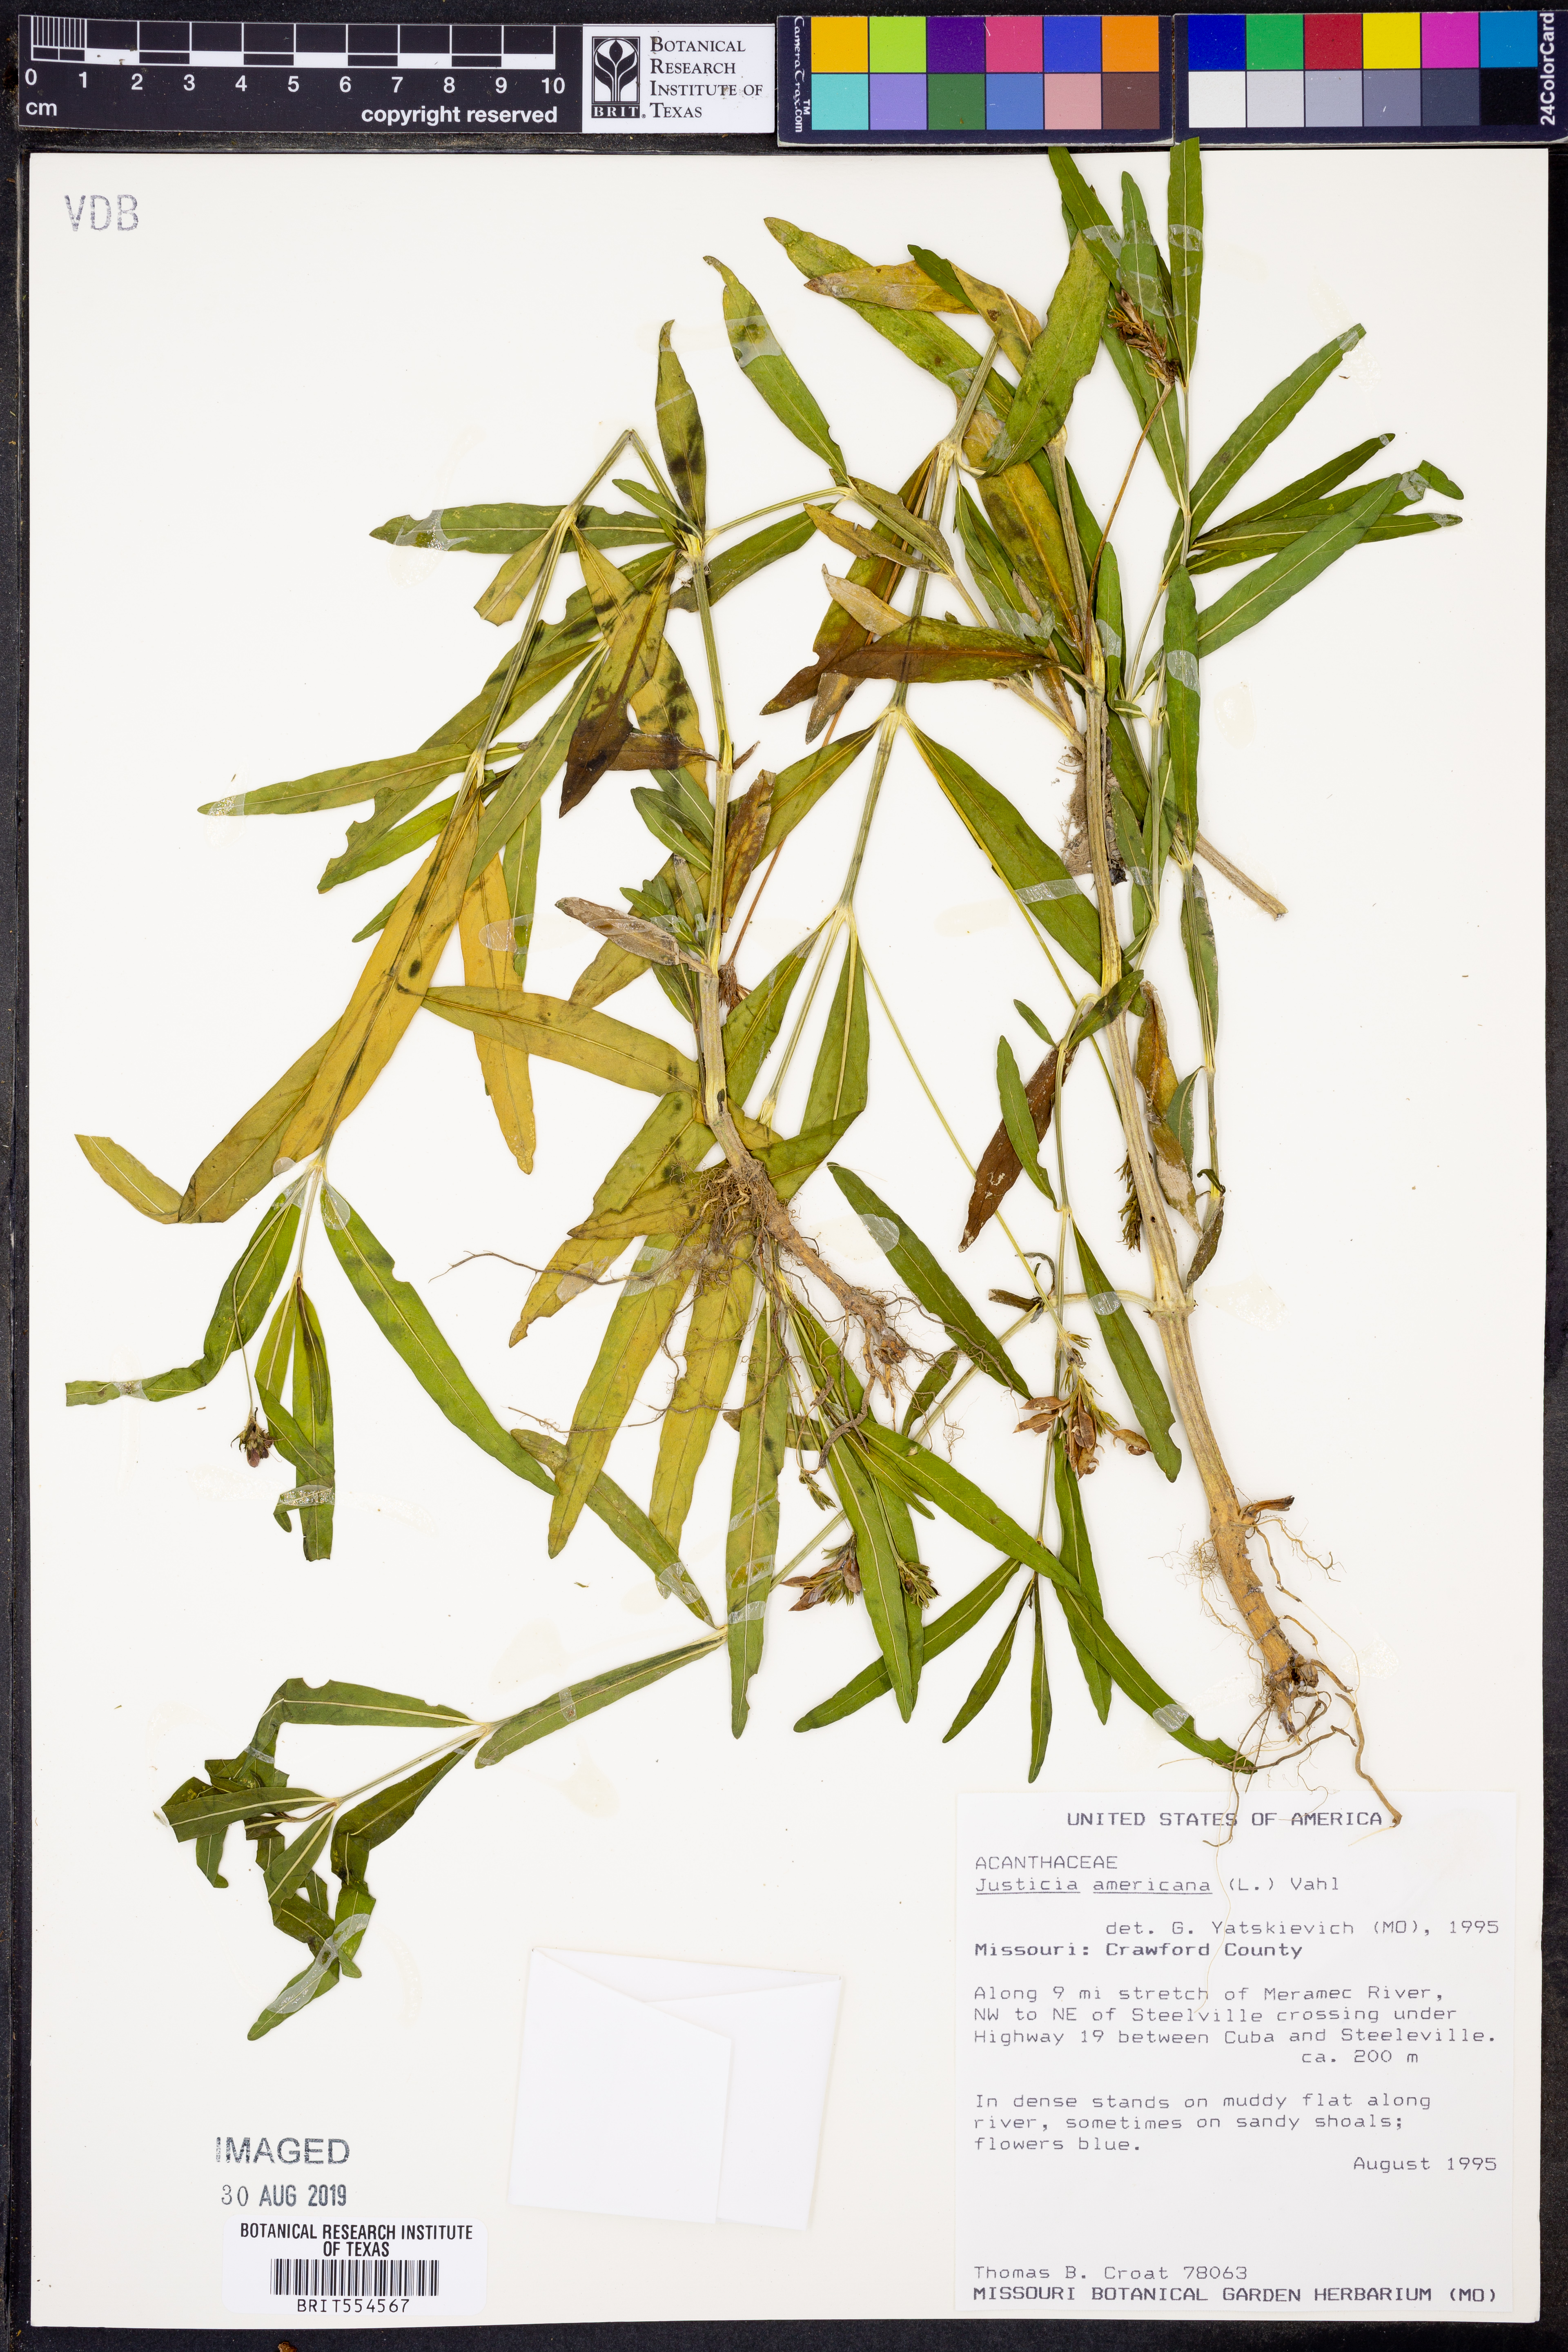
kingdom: Plantae
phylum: Tracheophyta
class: Magnoliopsida
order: Lamiales
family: Acanthaceae
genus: Dianthera
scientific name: Dianthera americana
